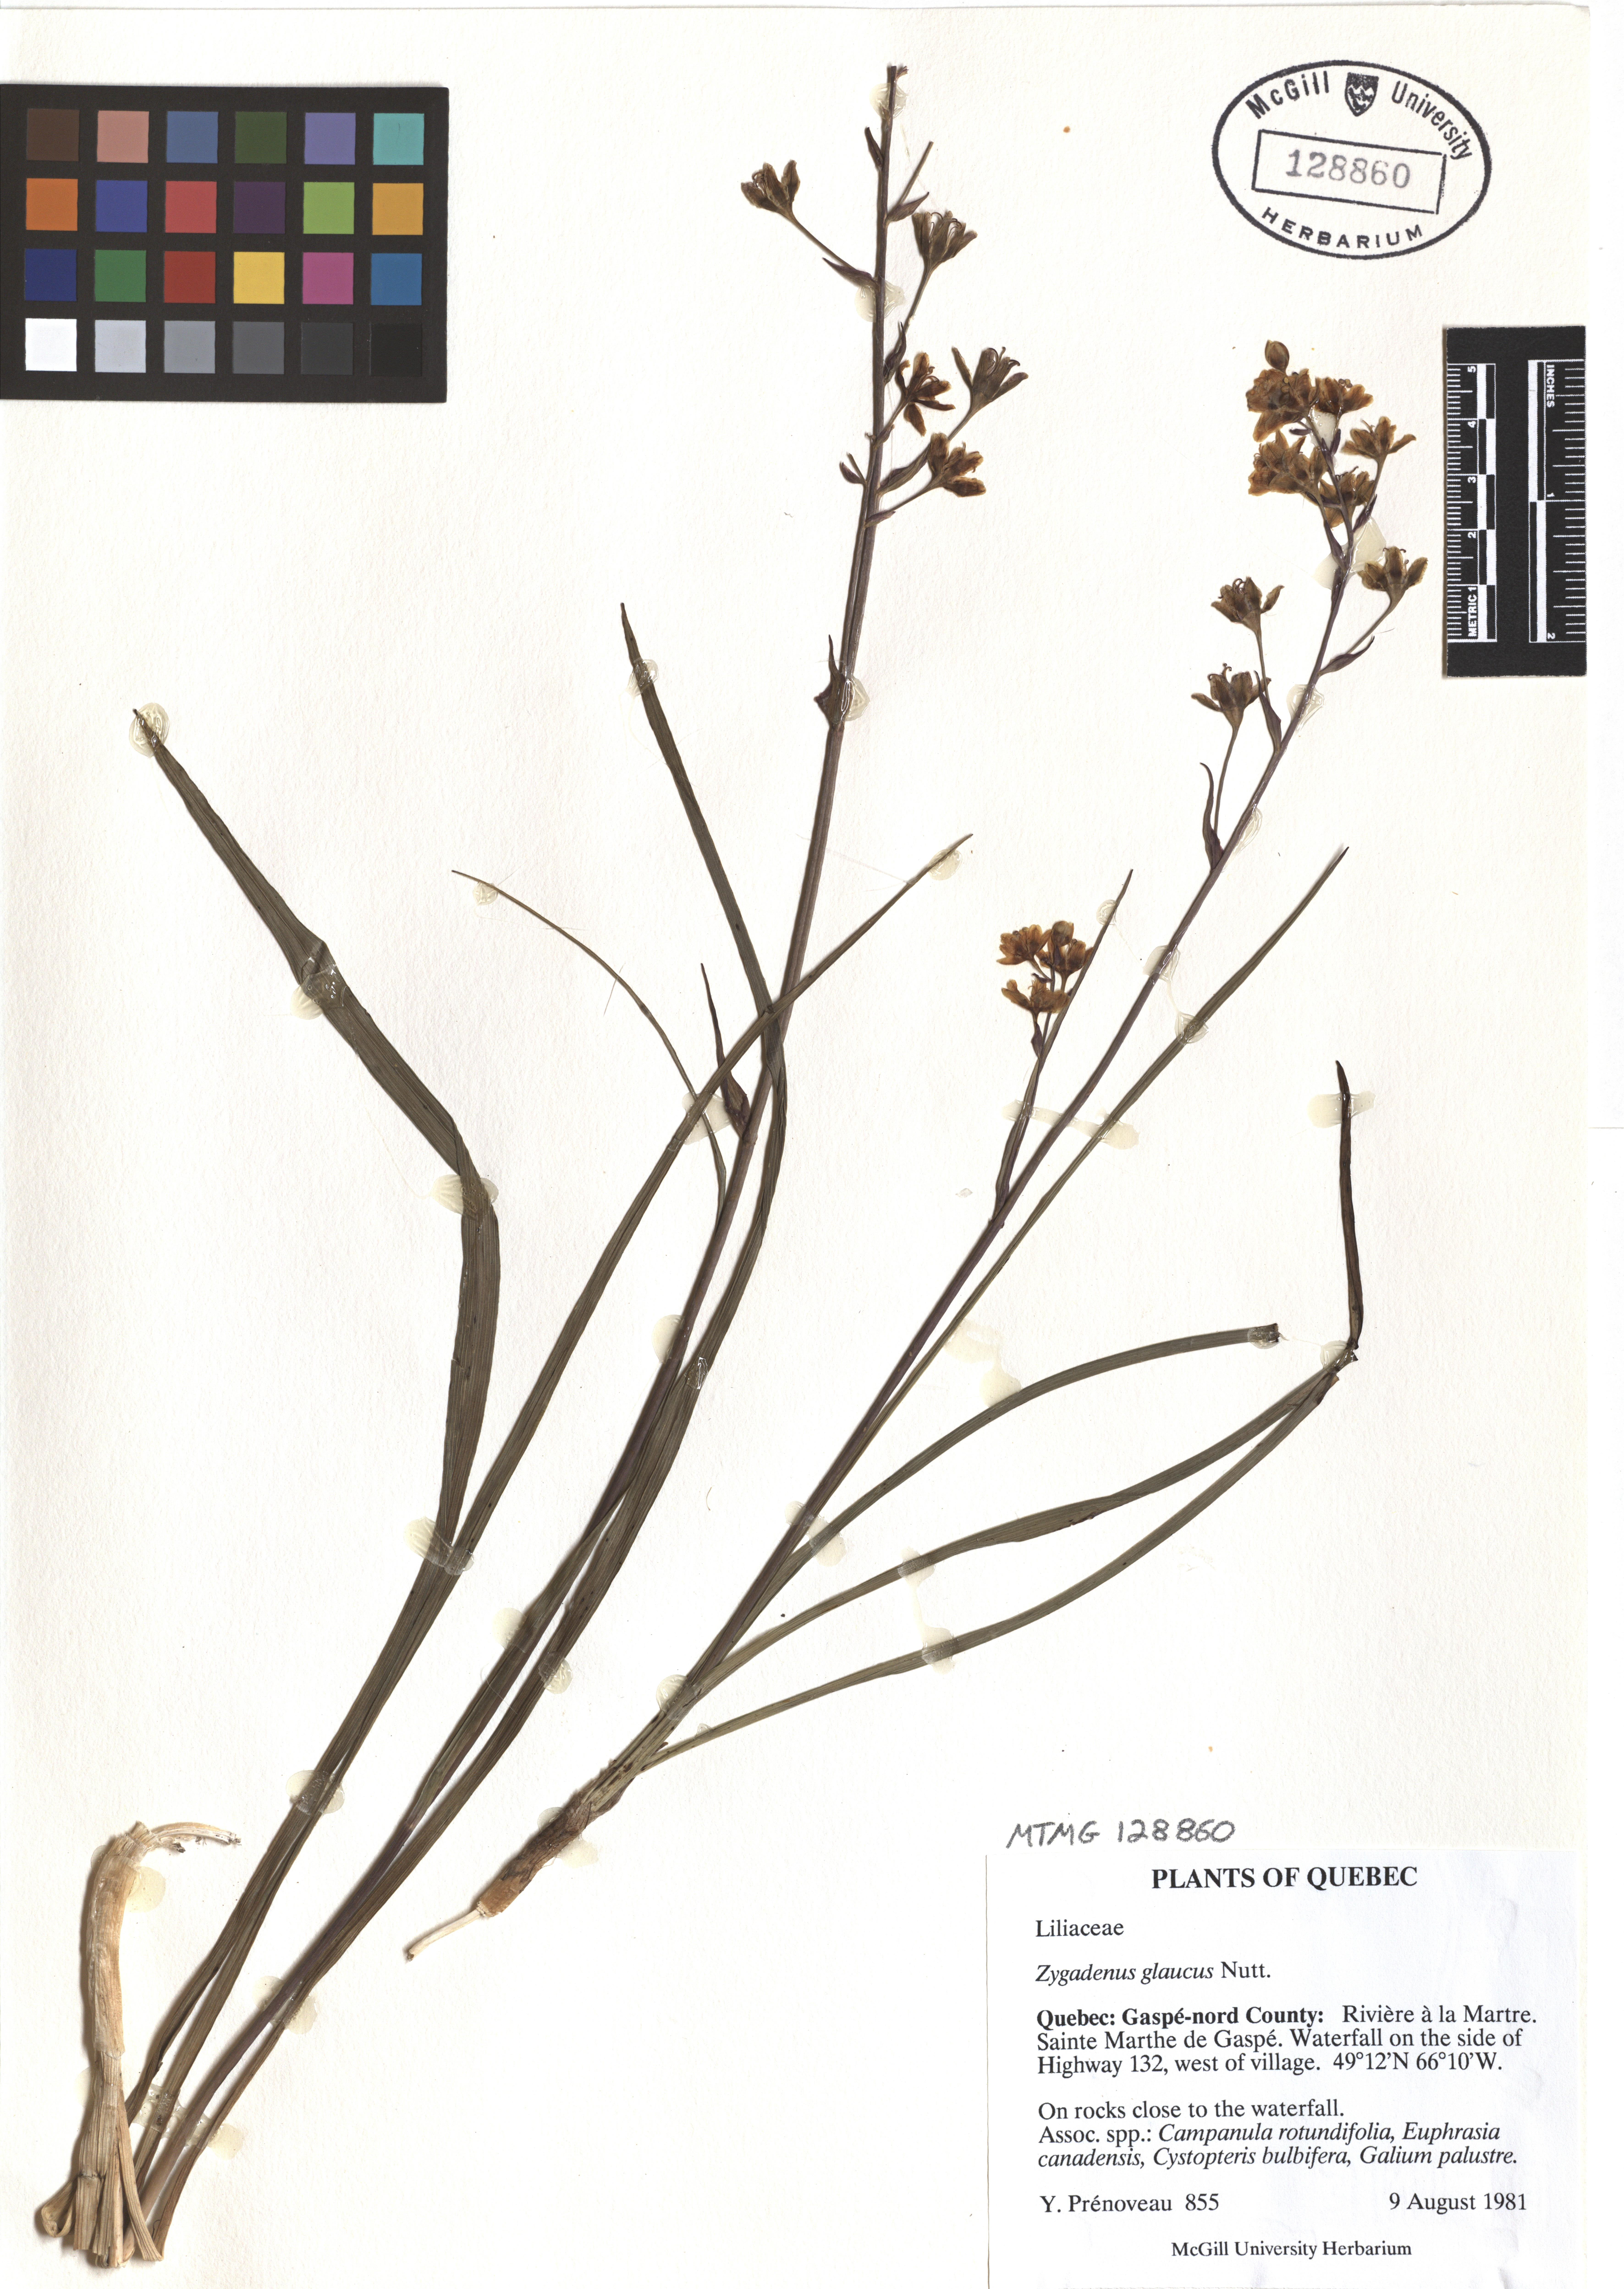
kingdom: Plantae
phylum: Tracheophyta
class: Liliopsida
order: Liliales
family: Melanthiaceae
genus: Anticlea
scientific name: Anticlea elegans
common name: Mountain death camas
